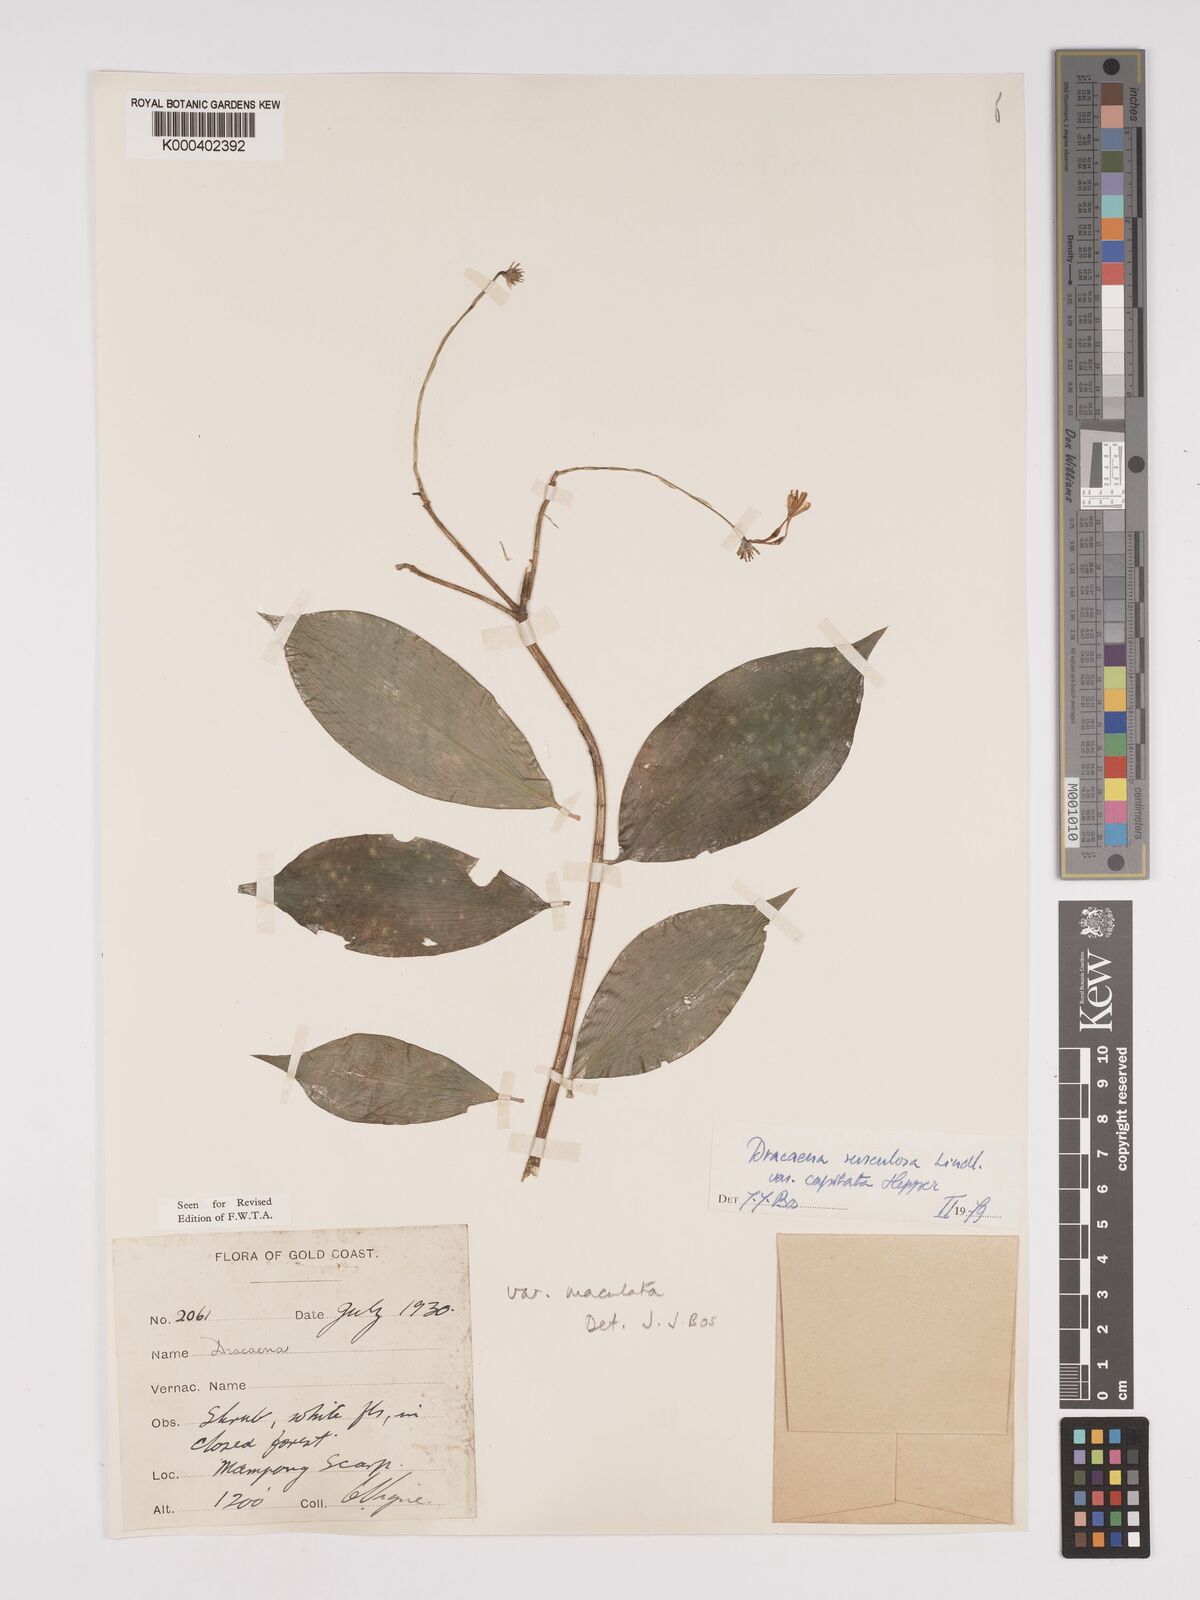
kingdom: Plantae
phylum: Tracheophyta
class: Liliopsida
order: Asparagales
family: Asparagaceae
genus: Dracaena
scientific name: Dracaena surculosa
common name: Spotted dracaena
